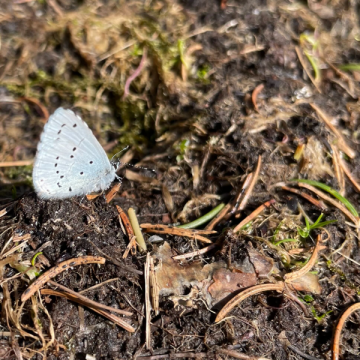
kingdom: Animalia
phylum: Arthropoda
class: Insecta
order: Lepidoptera
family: Lycaenidae
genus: Celastrina
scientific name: Celastrina argiolus
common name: Holly Blue
